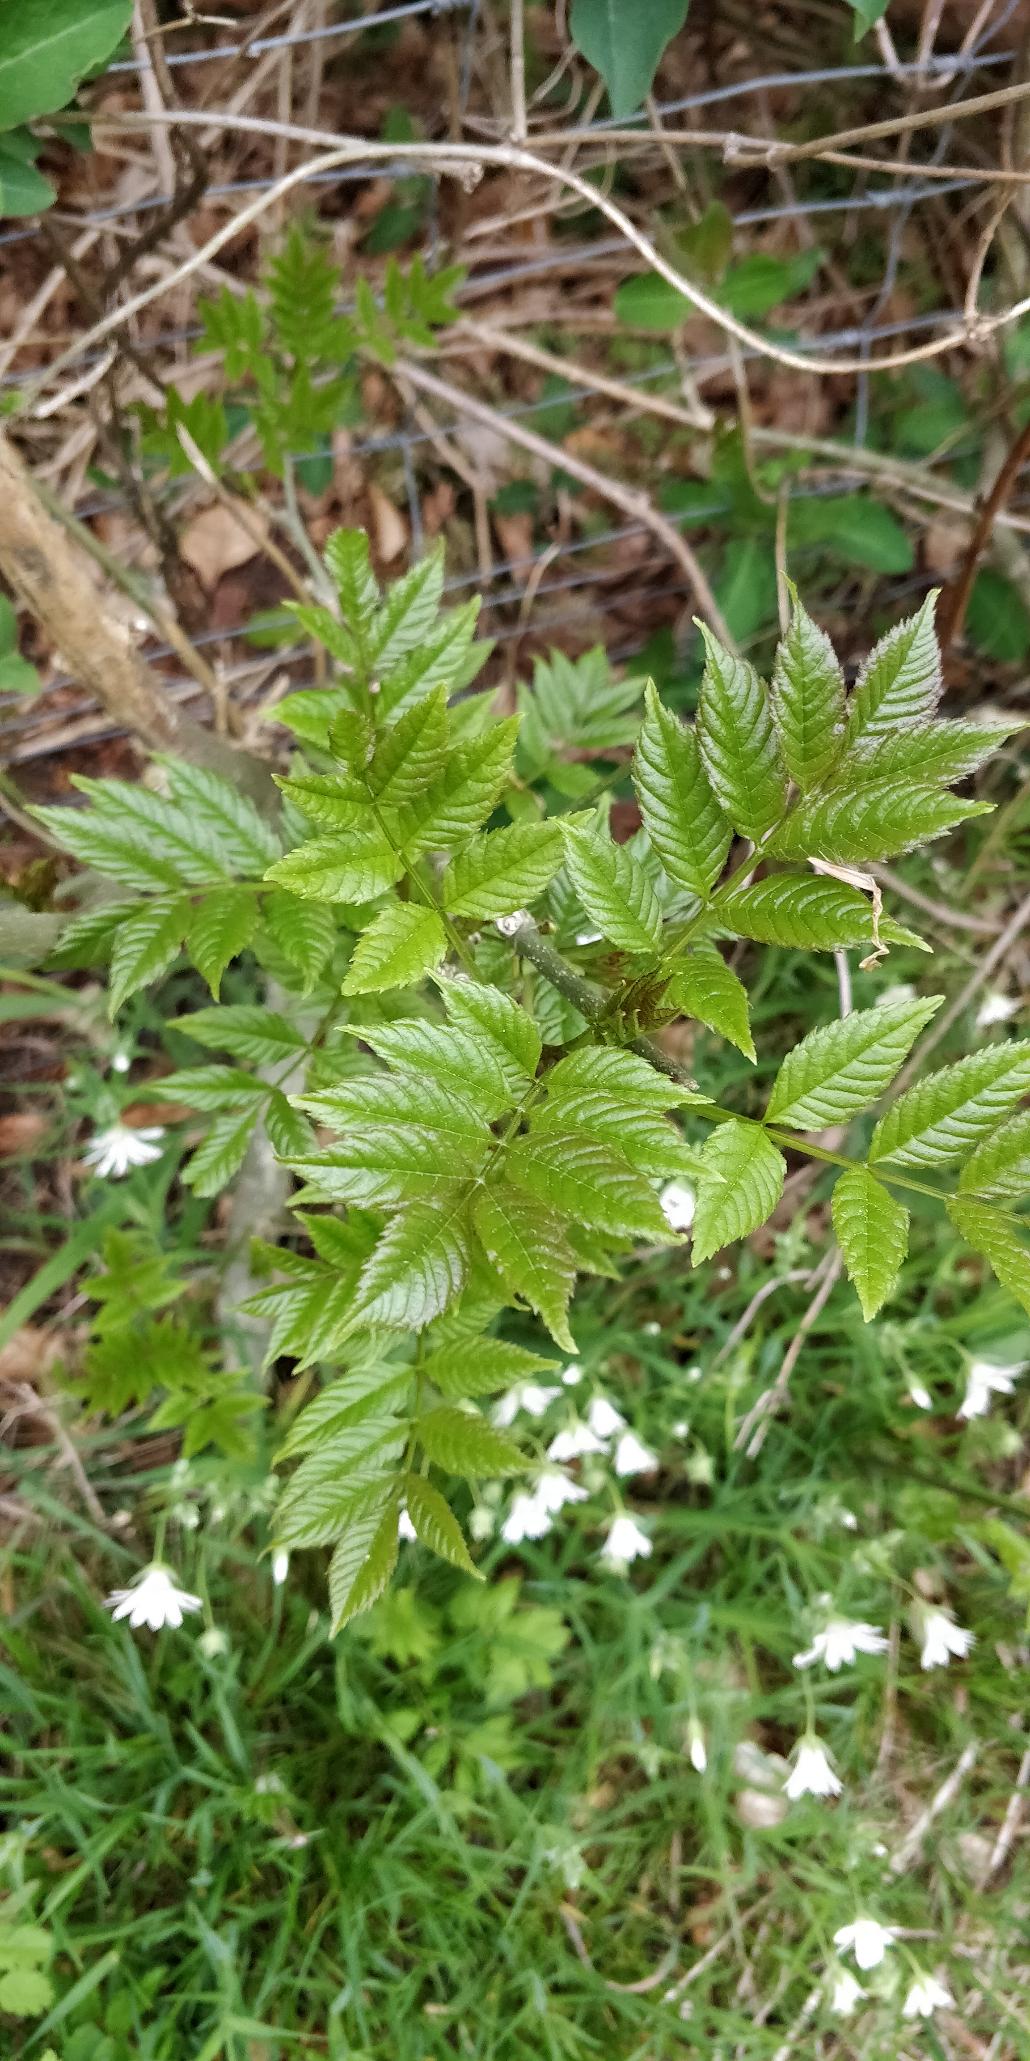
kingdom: Plantae
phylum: Tracheophyta
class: Magnoliopsida
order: Lamiales
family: Oleaceae
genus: Fraxinus
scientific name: Fraxinus excelsior
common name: Ask
